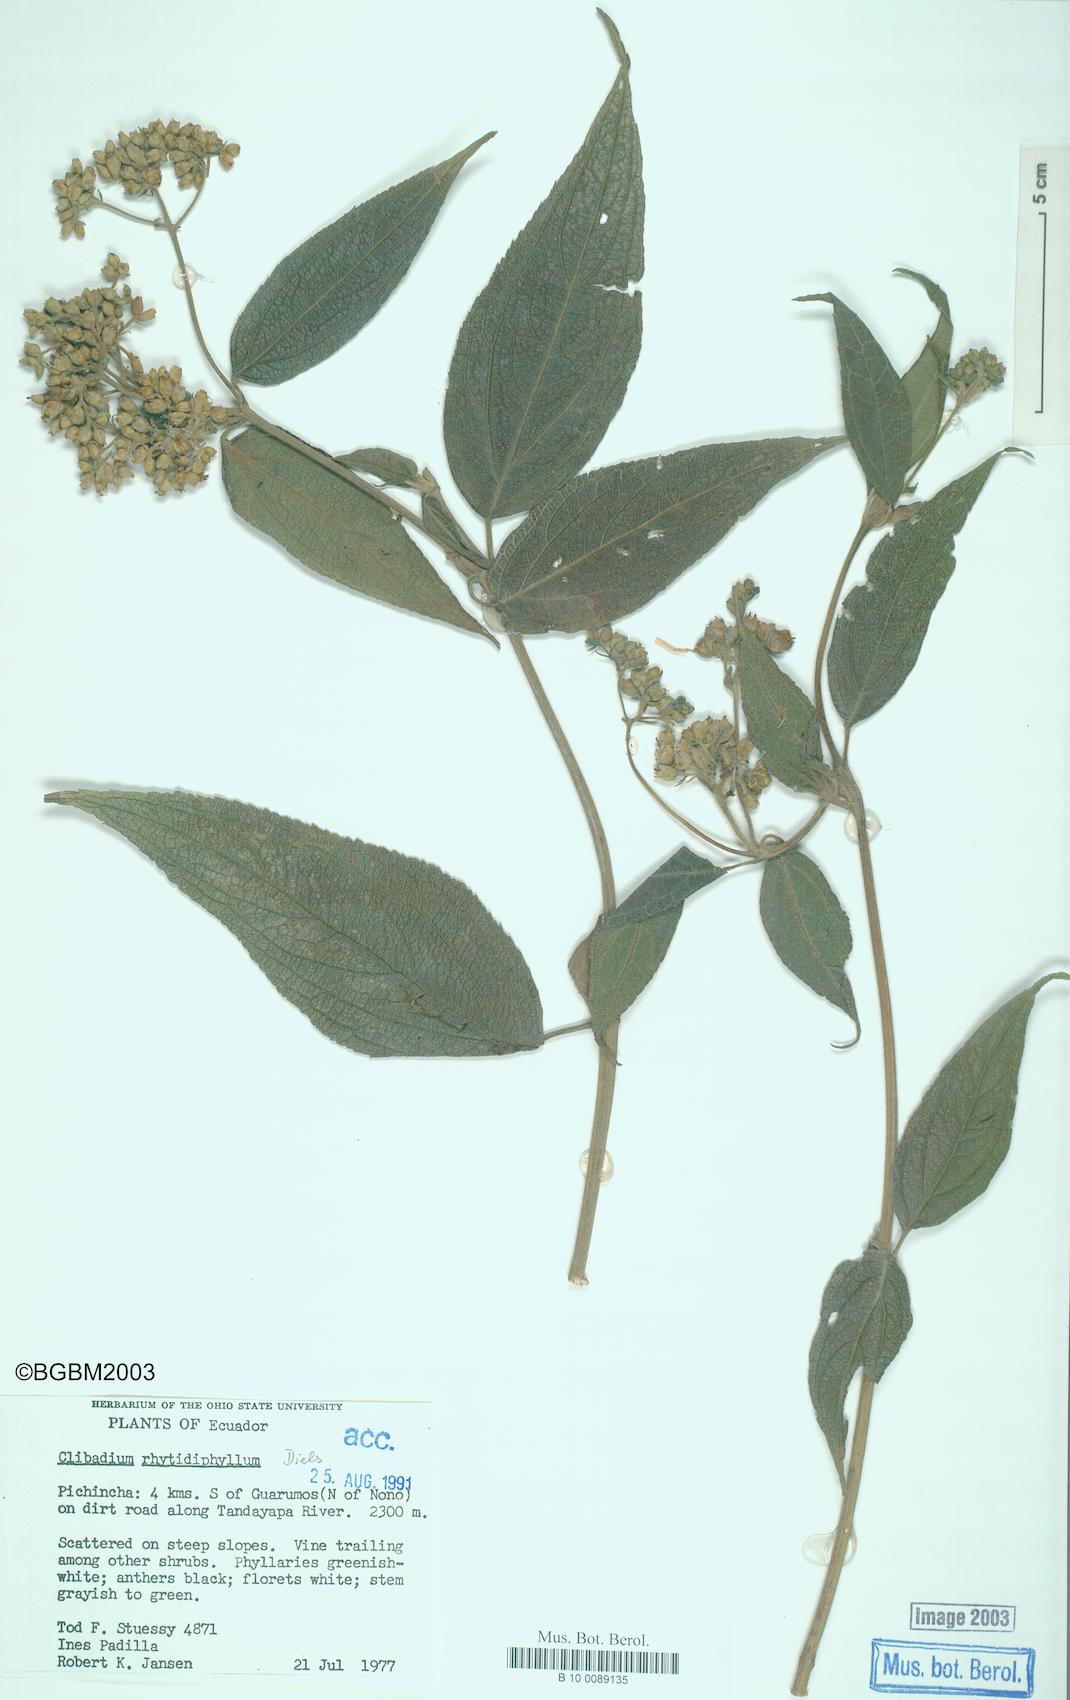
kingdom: Plantae
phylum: Tracheophyta
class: Magnoliopsida
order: Asterales
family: Asteraceae
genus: Clibadium
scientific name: Clibadium rhytidophyllum
